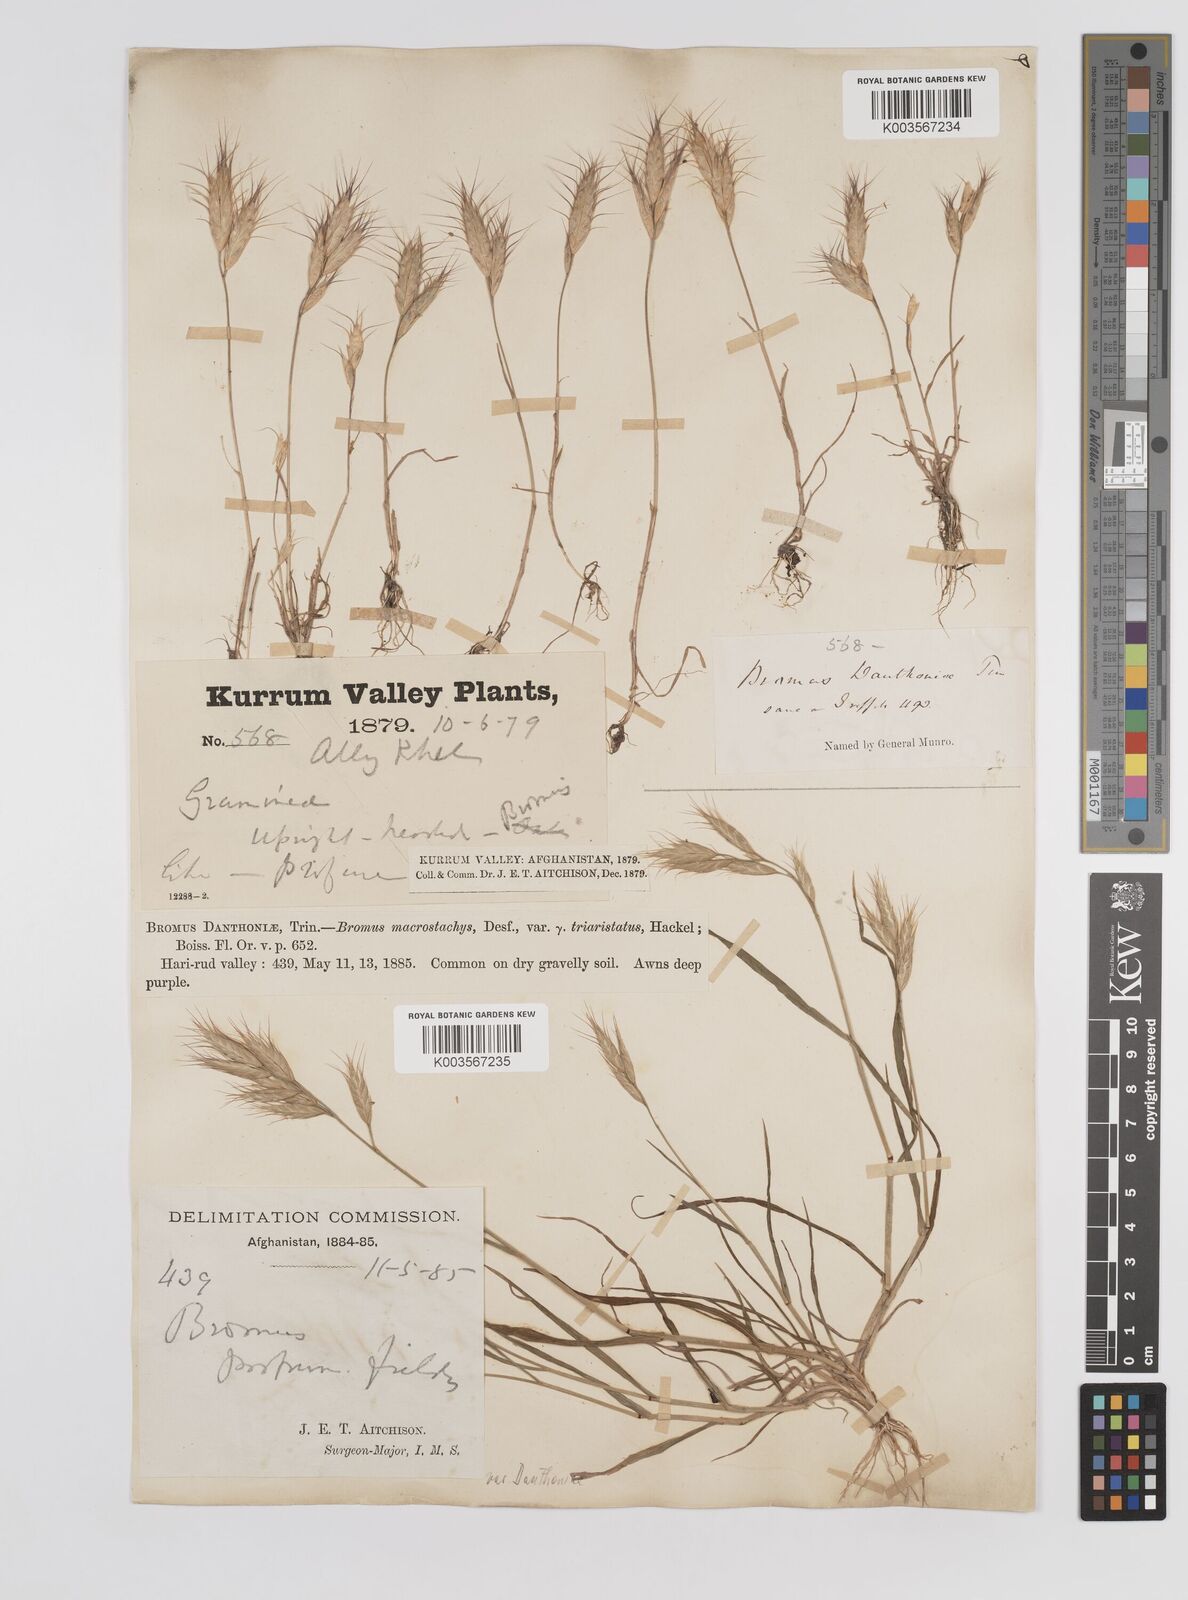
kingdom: Plantae
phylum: Tracheophyta
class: Liliopsida
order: Poales
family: Poaceae
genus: Bromus
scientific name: Bromus danthoniae
